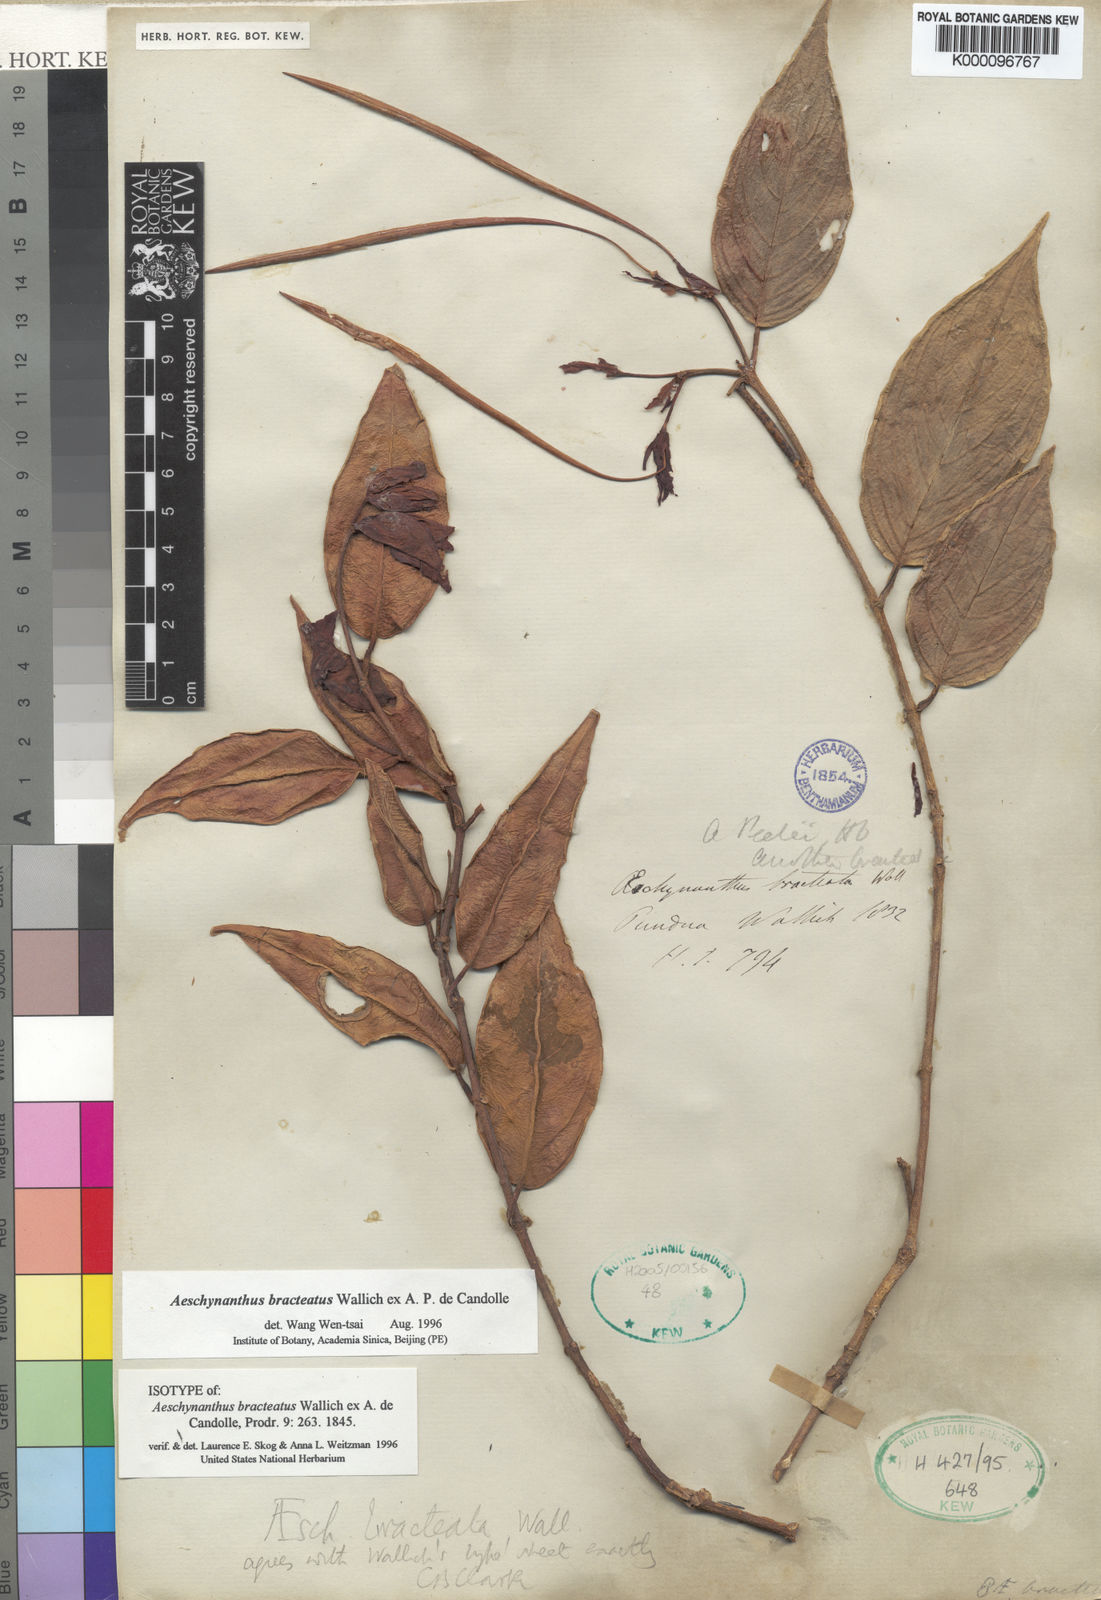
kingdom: Plantae
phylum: Tracheophyta
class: Magnoliopsida
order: Lamiales
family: Gesneriaceae
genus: Aeschynanthus
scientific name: Aeschynanthus bracteatus
